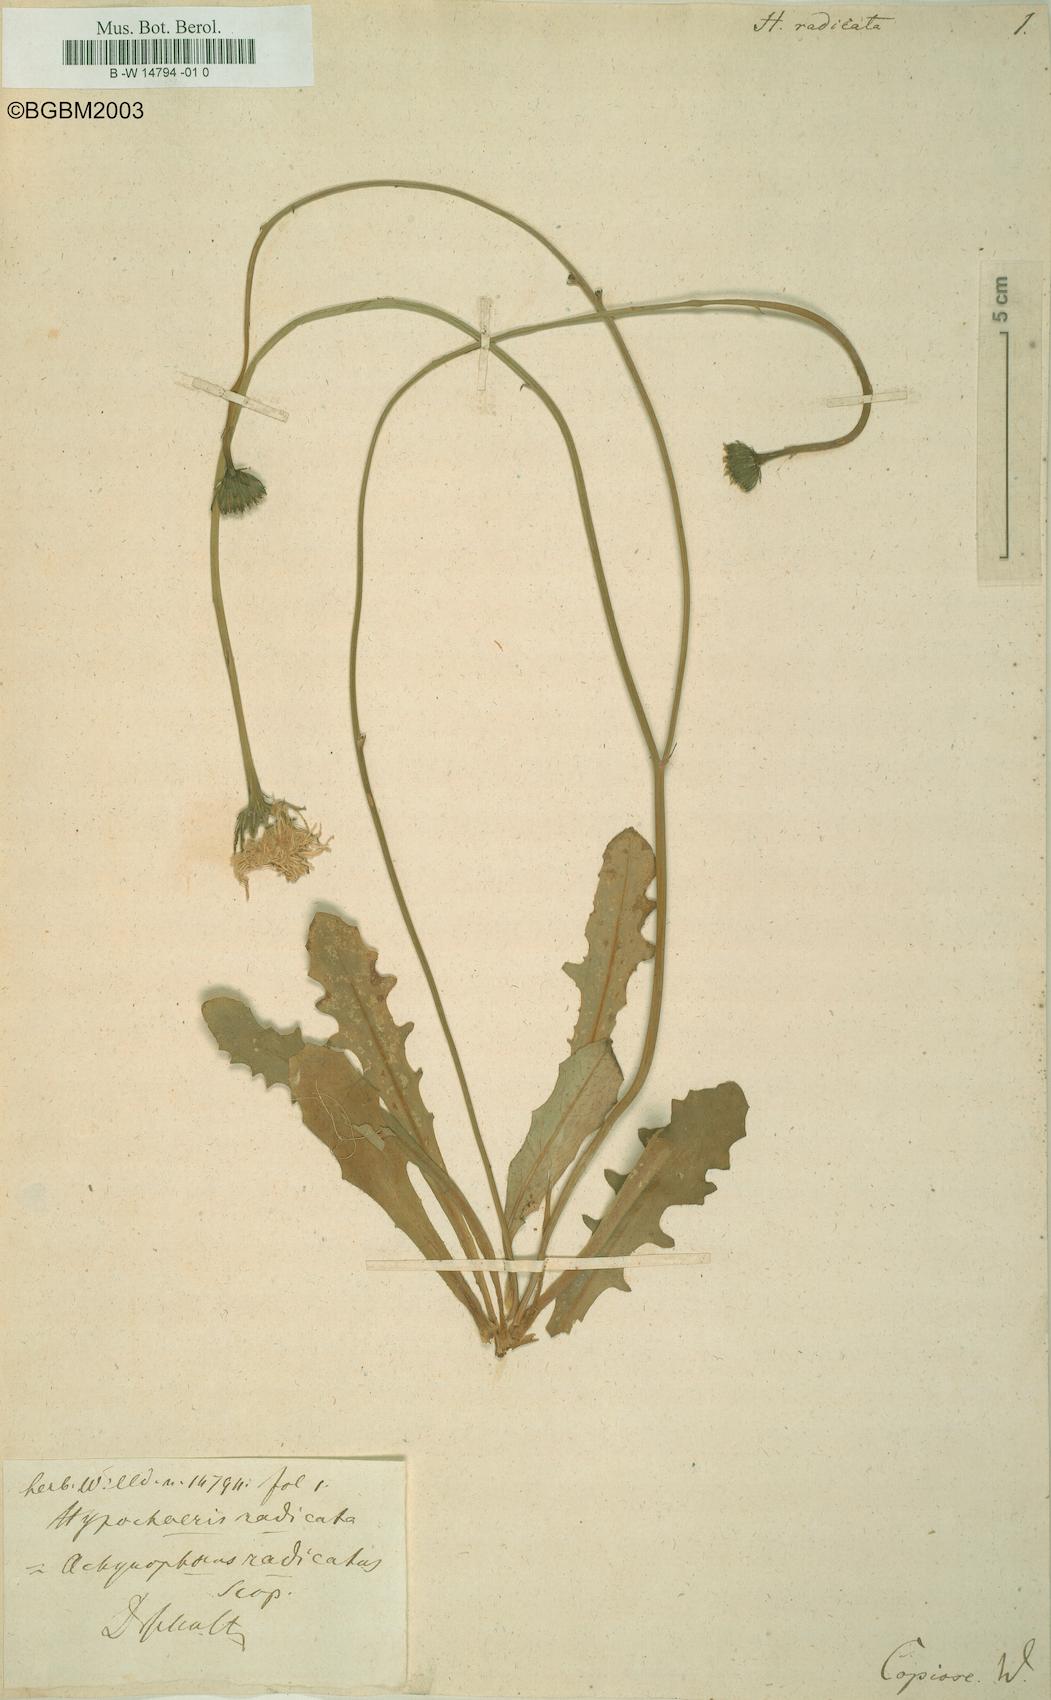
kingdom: Plantae
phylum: Tracheophyta
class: Magnoliopsida
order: Asterales
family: Asteraceae
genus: Hypochaeris
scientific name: Hypochaeris radicata
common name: Flatweed
